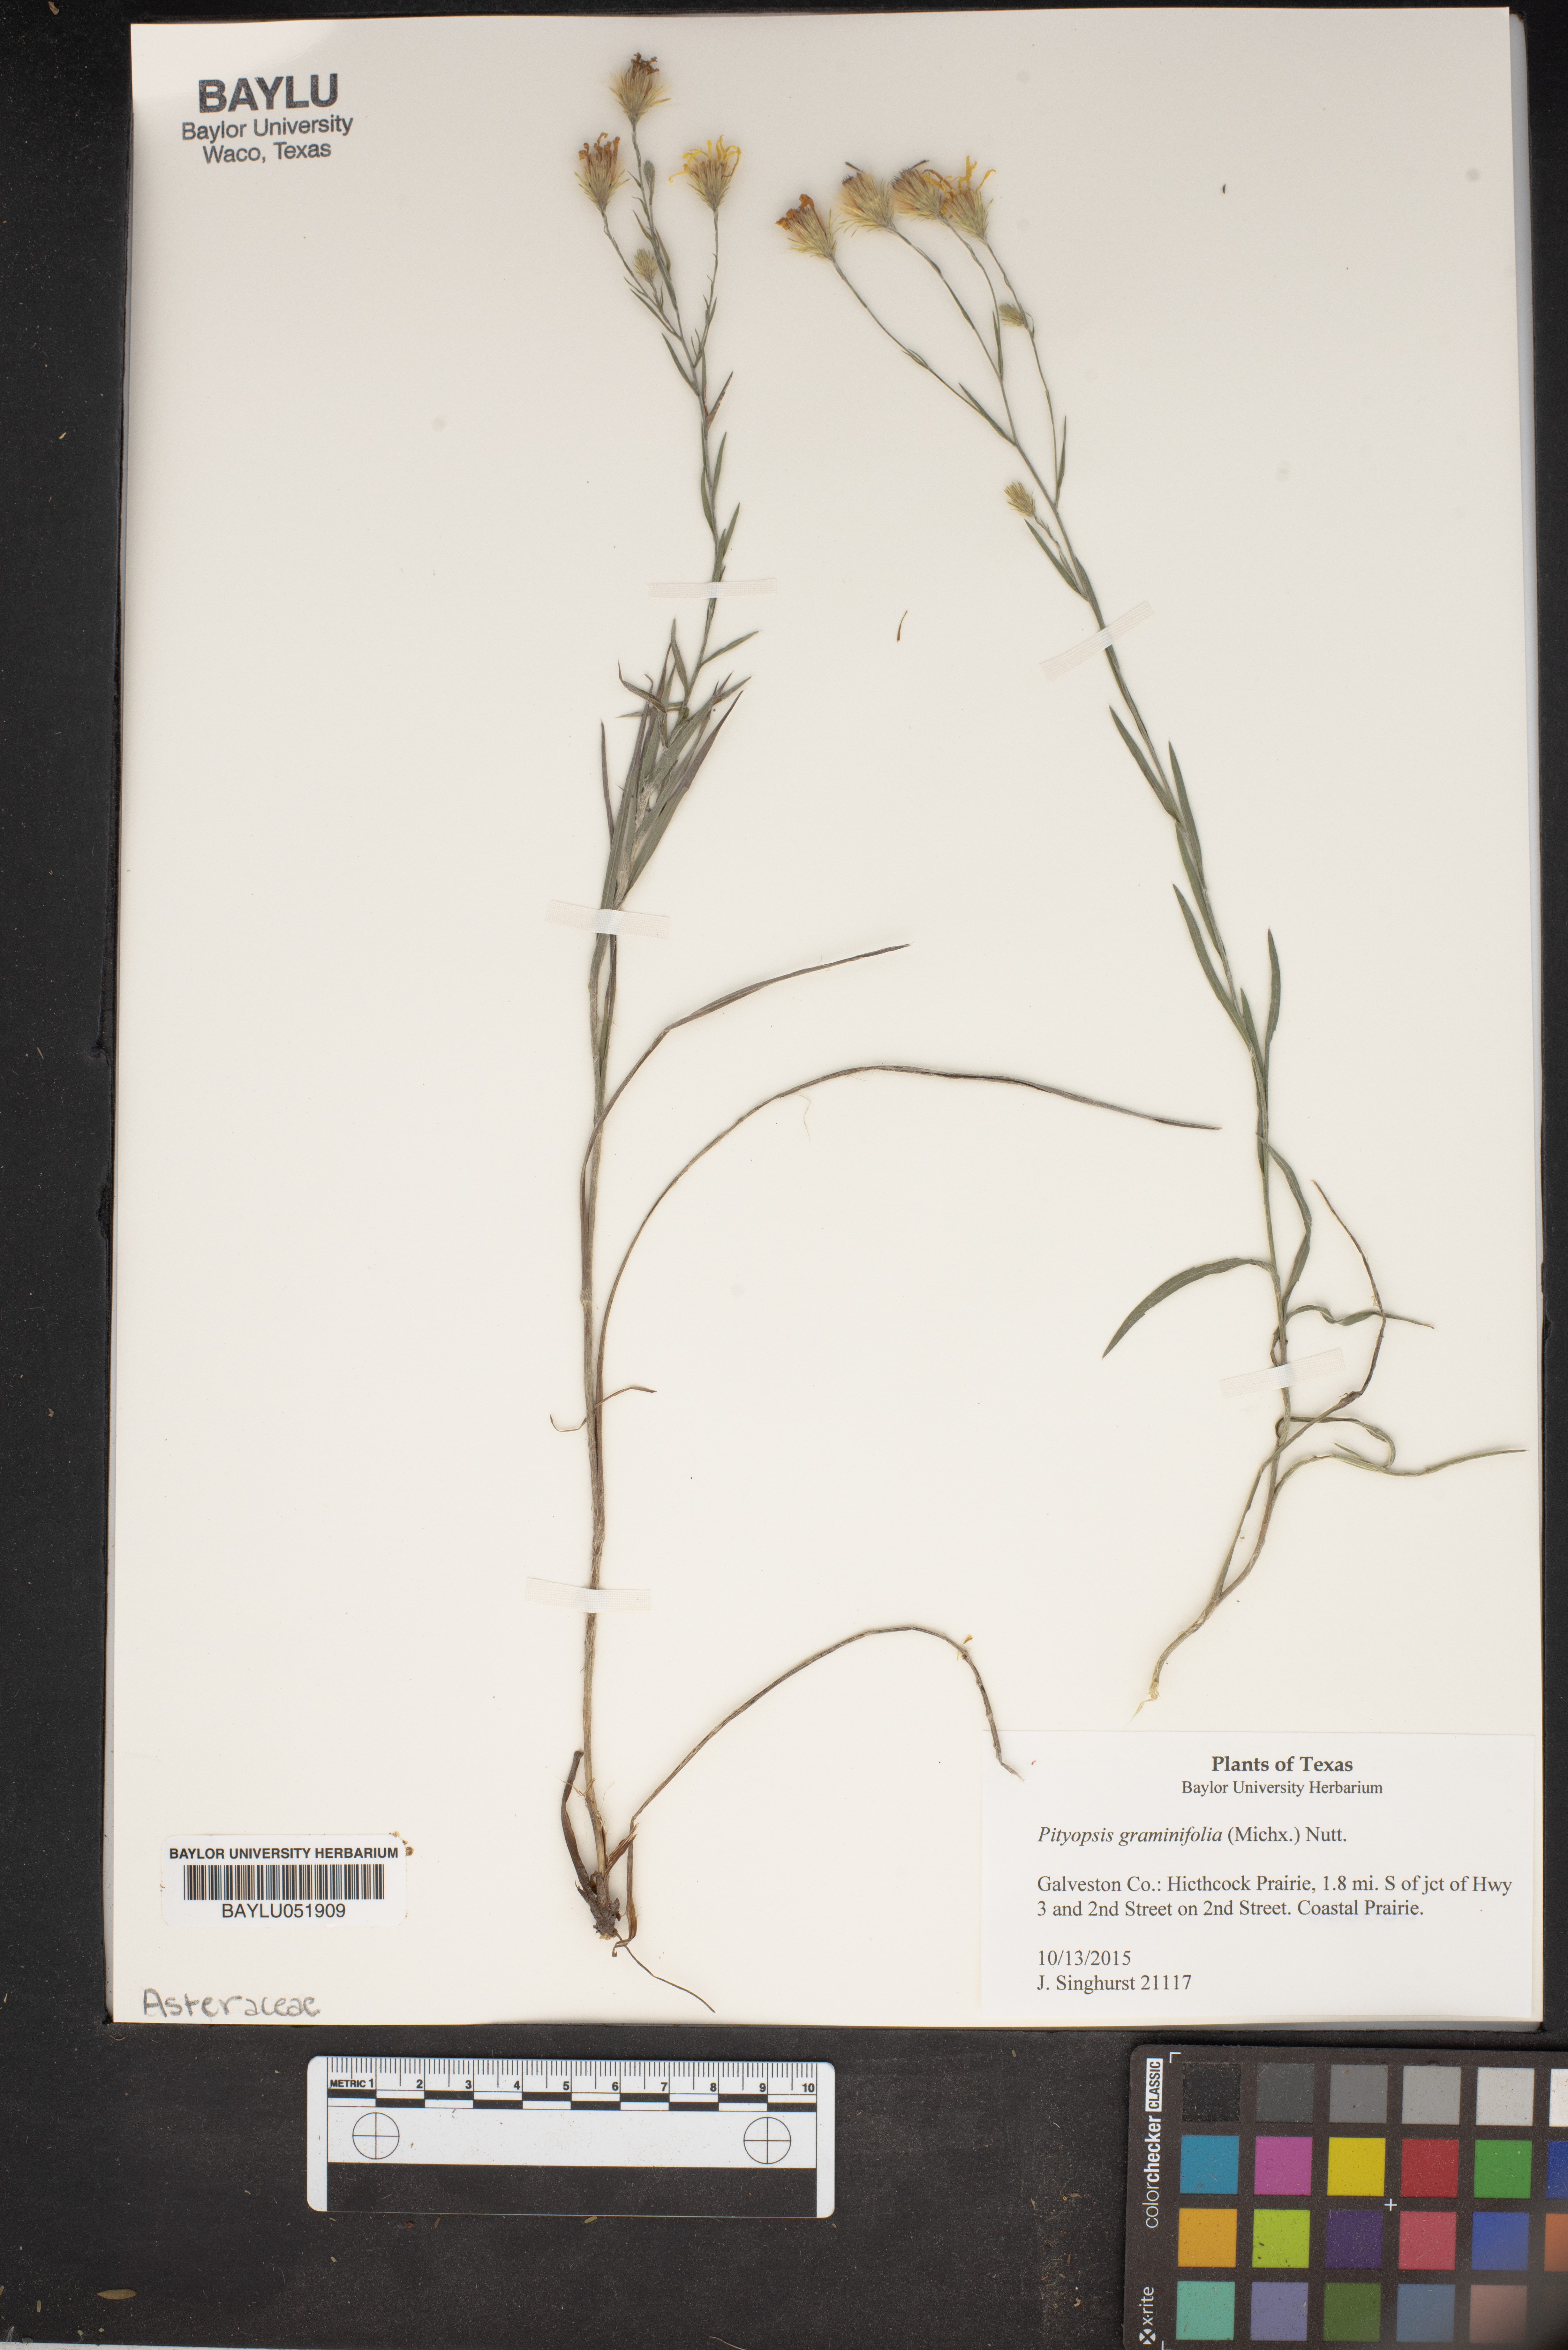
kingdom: Plantae
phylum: Tracheophyta
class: Magnoliopsida
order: Asterales
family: Asteraceae
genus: Pityopsis
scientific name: Pityopsis graminifolia
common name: Grass-leaf golden-aster
